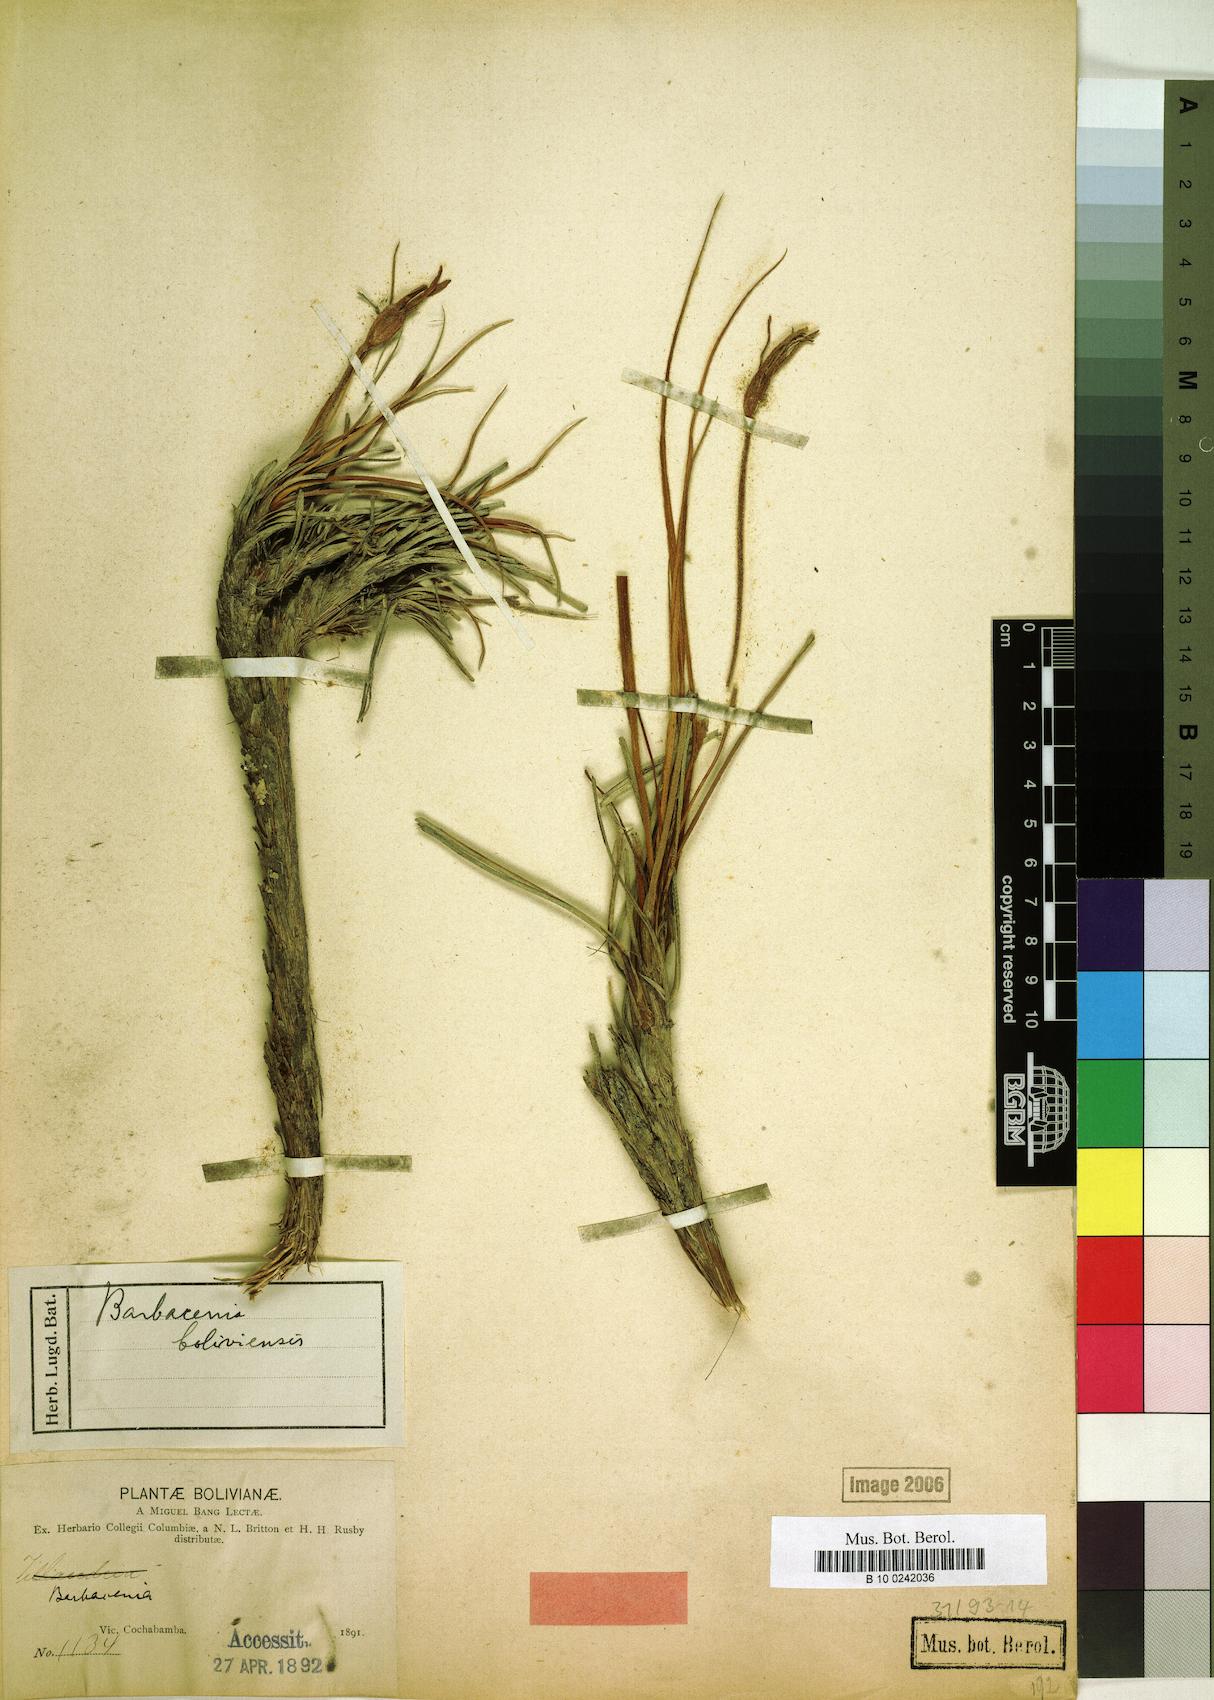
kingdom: Plantae
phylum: Tracheophyta
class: Liliopsida
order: Pandanales
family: Velloziaceae
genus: Barbaceniopsis
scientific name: Barbaceniopsis boliviensis
